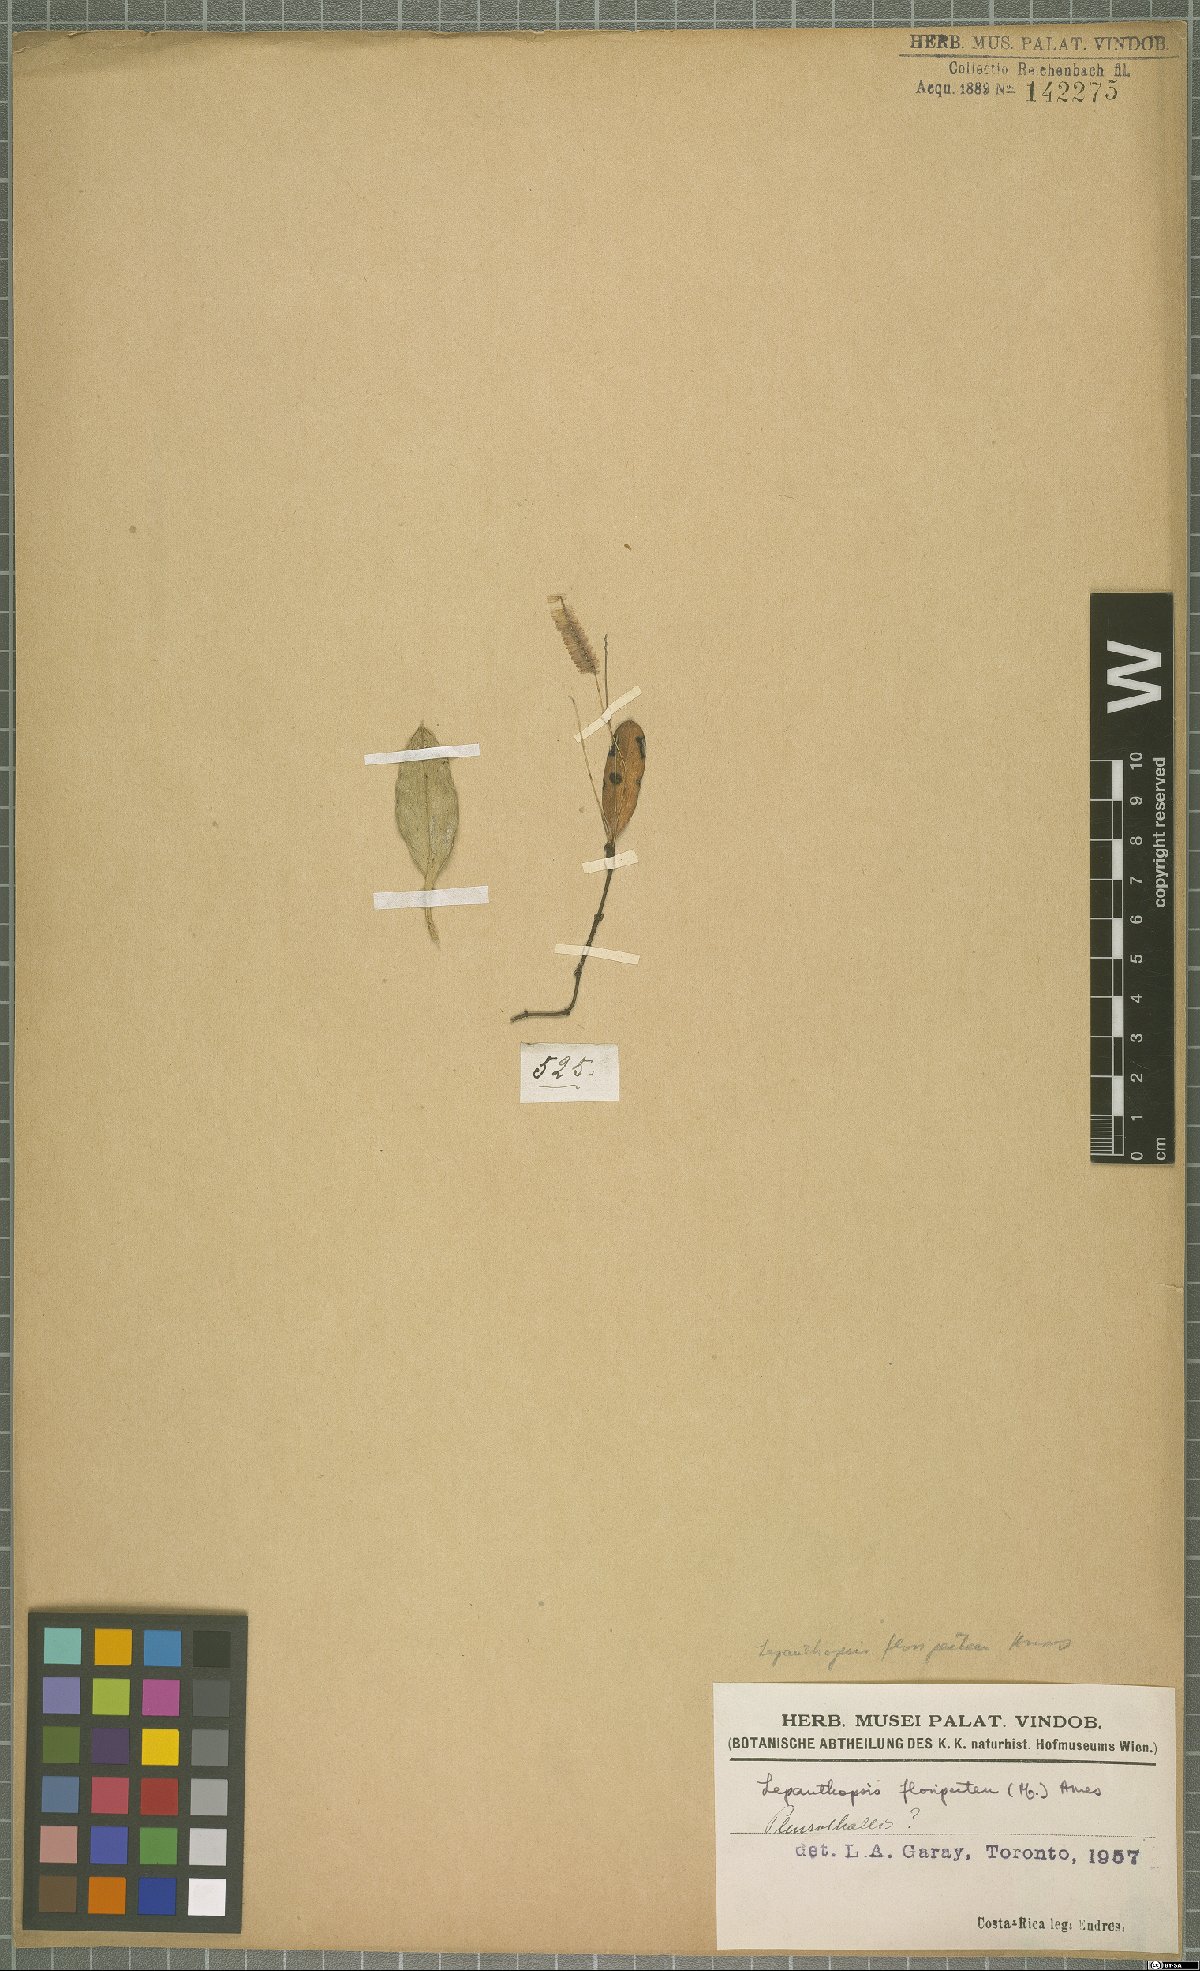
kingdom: Plantae
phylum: Tracheophyta
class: Liliopsida
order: Asparagales
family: Orchidaceae
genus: Lepanthopsis
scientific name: Lepanthopsis floripecten
